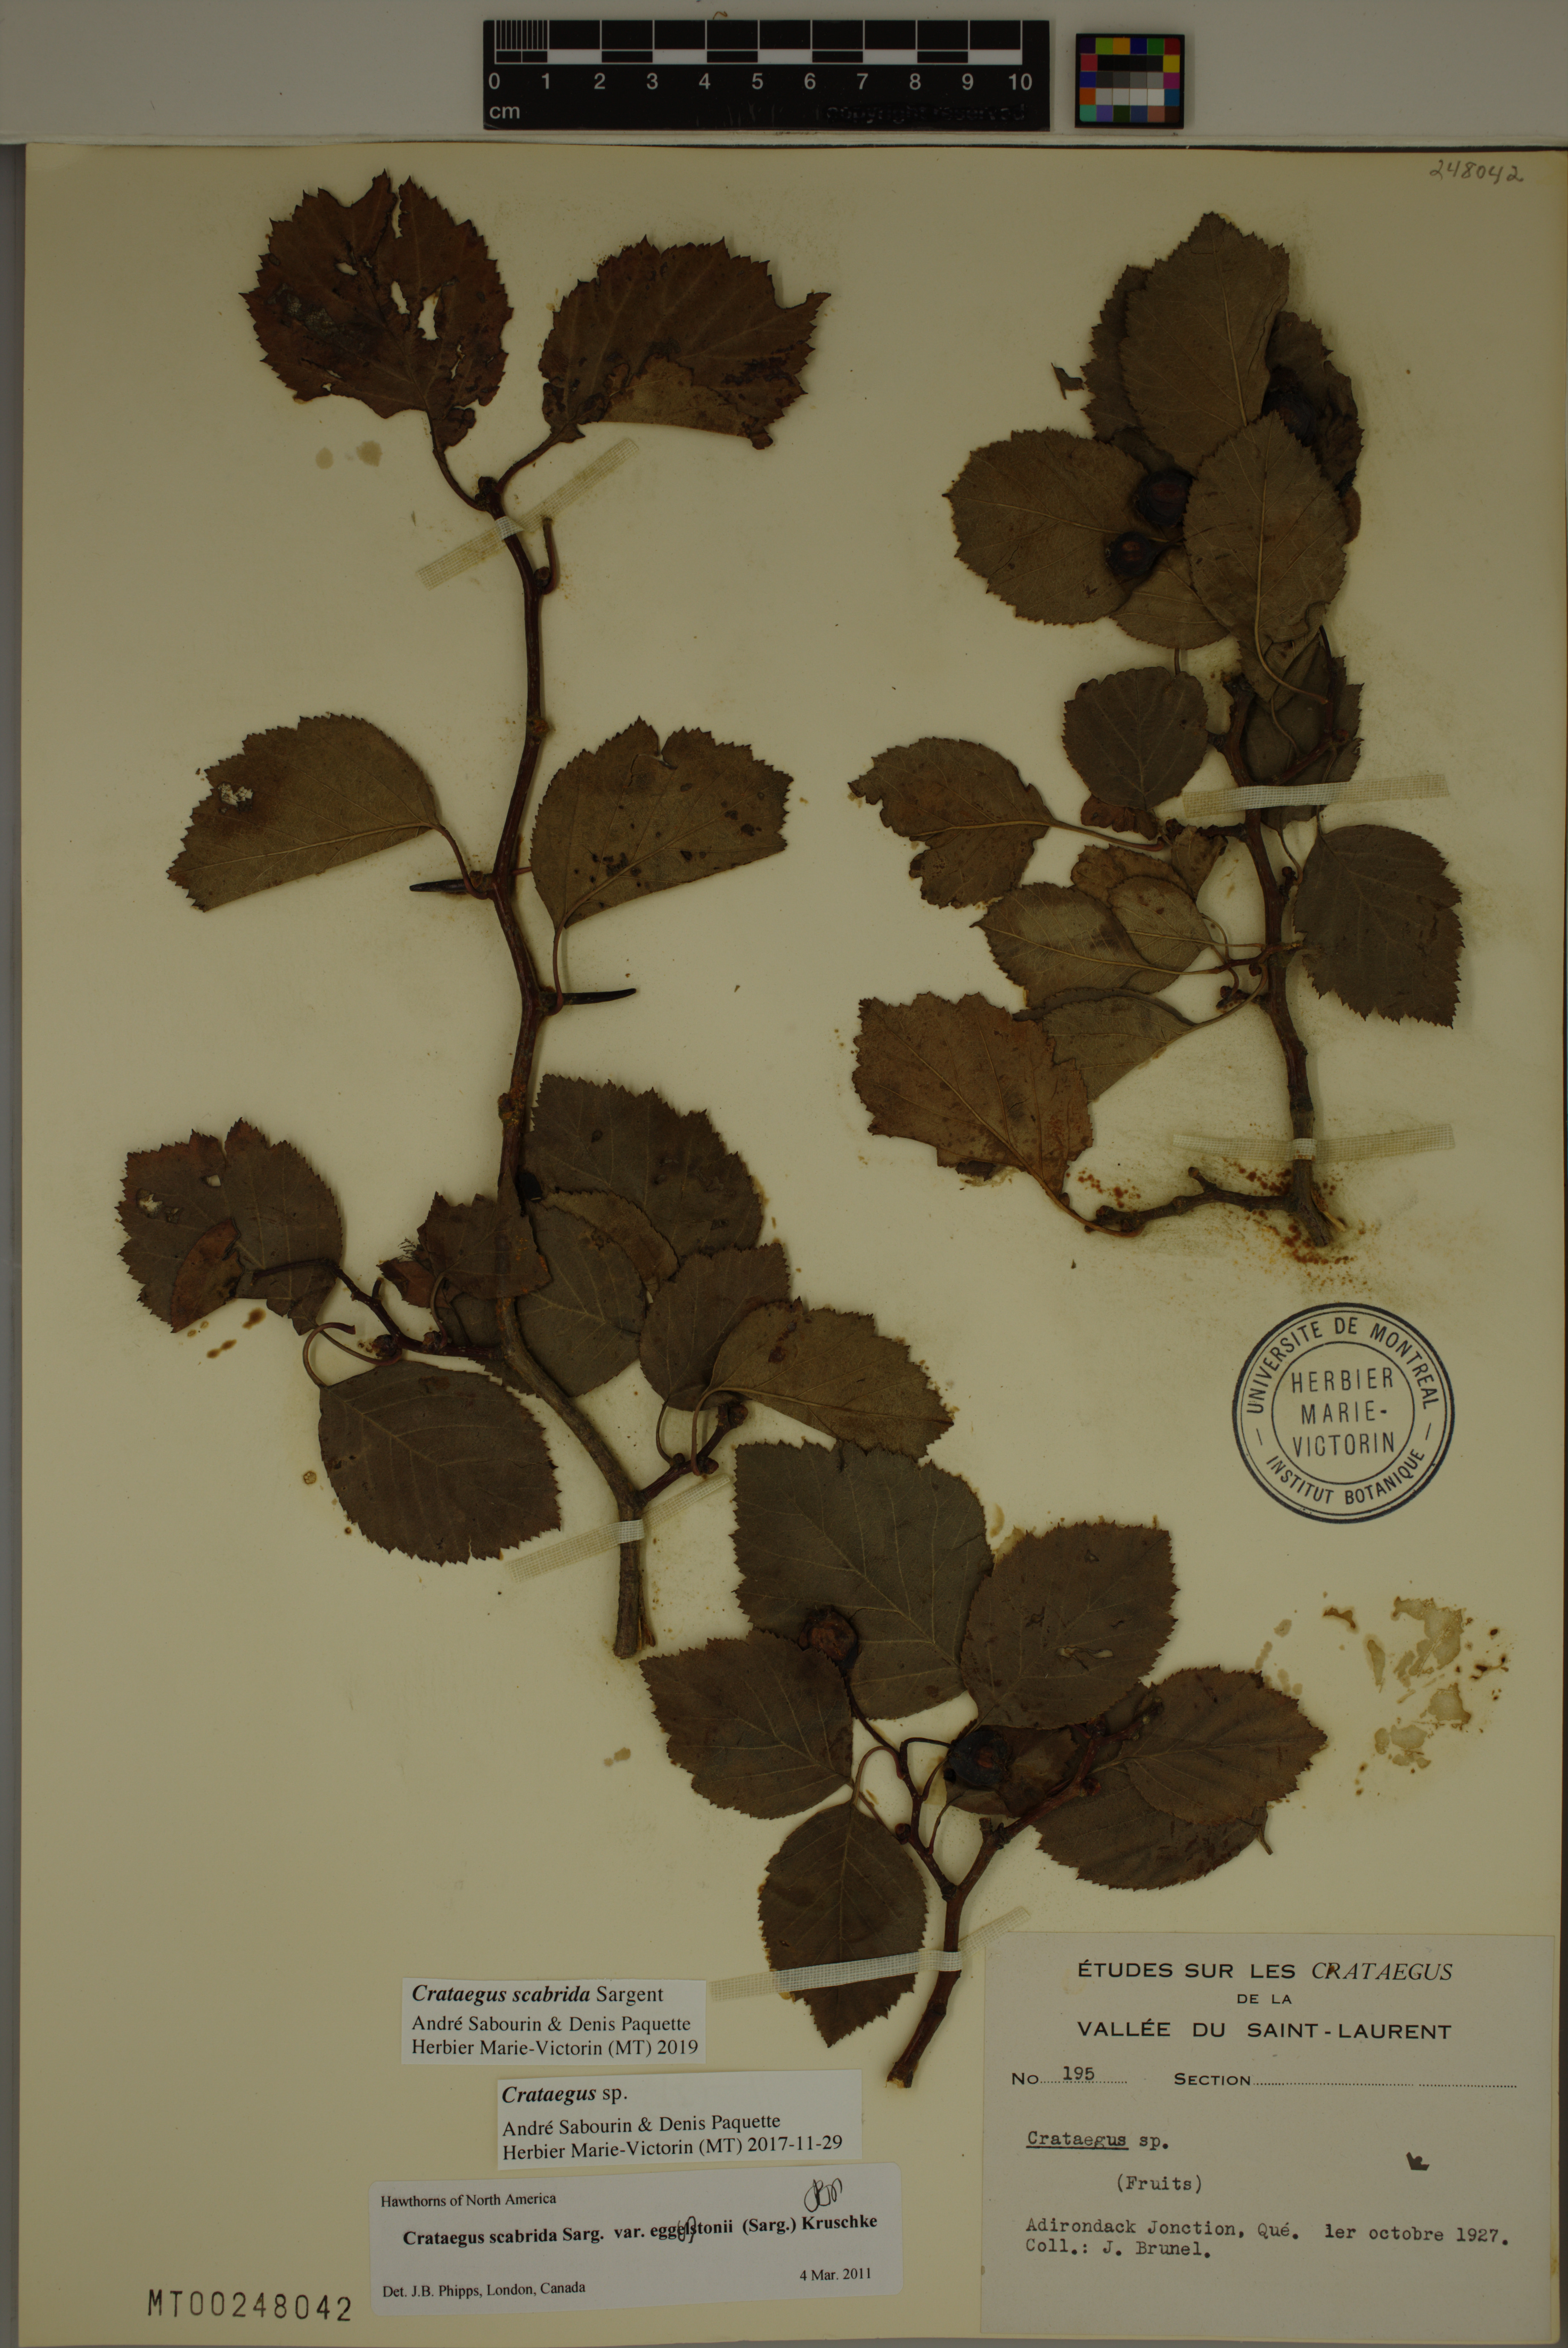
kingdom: Plantae
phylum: Tracheophyta
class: Magnoliopsida
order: Rosales
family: Rosaceae
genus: Crataegus
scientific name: Crataegus scabrida
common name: Rough hawthorn
